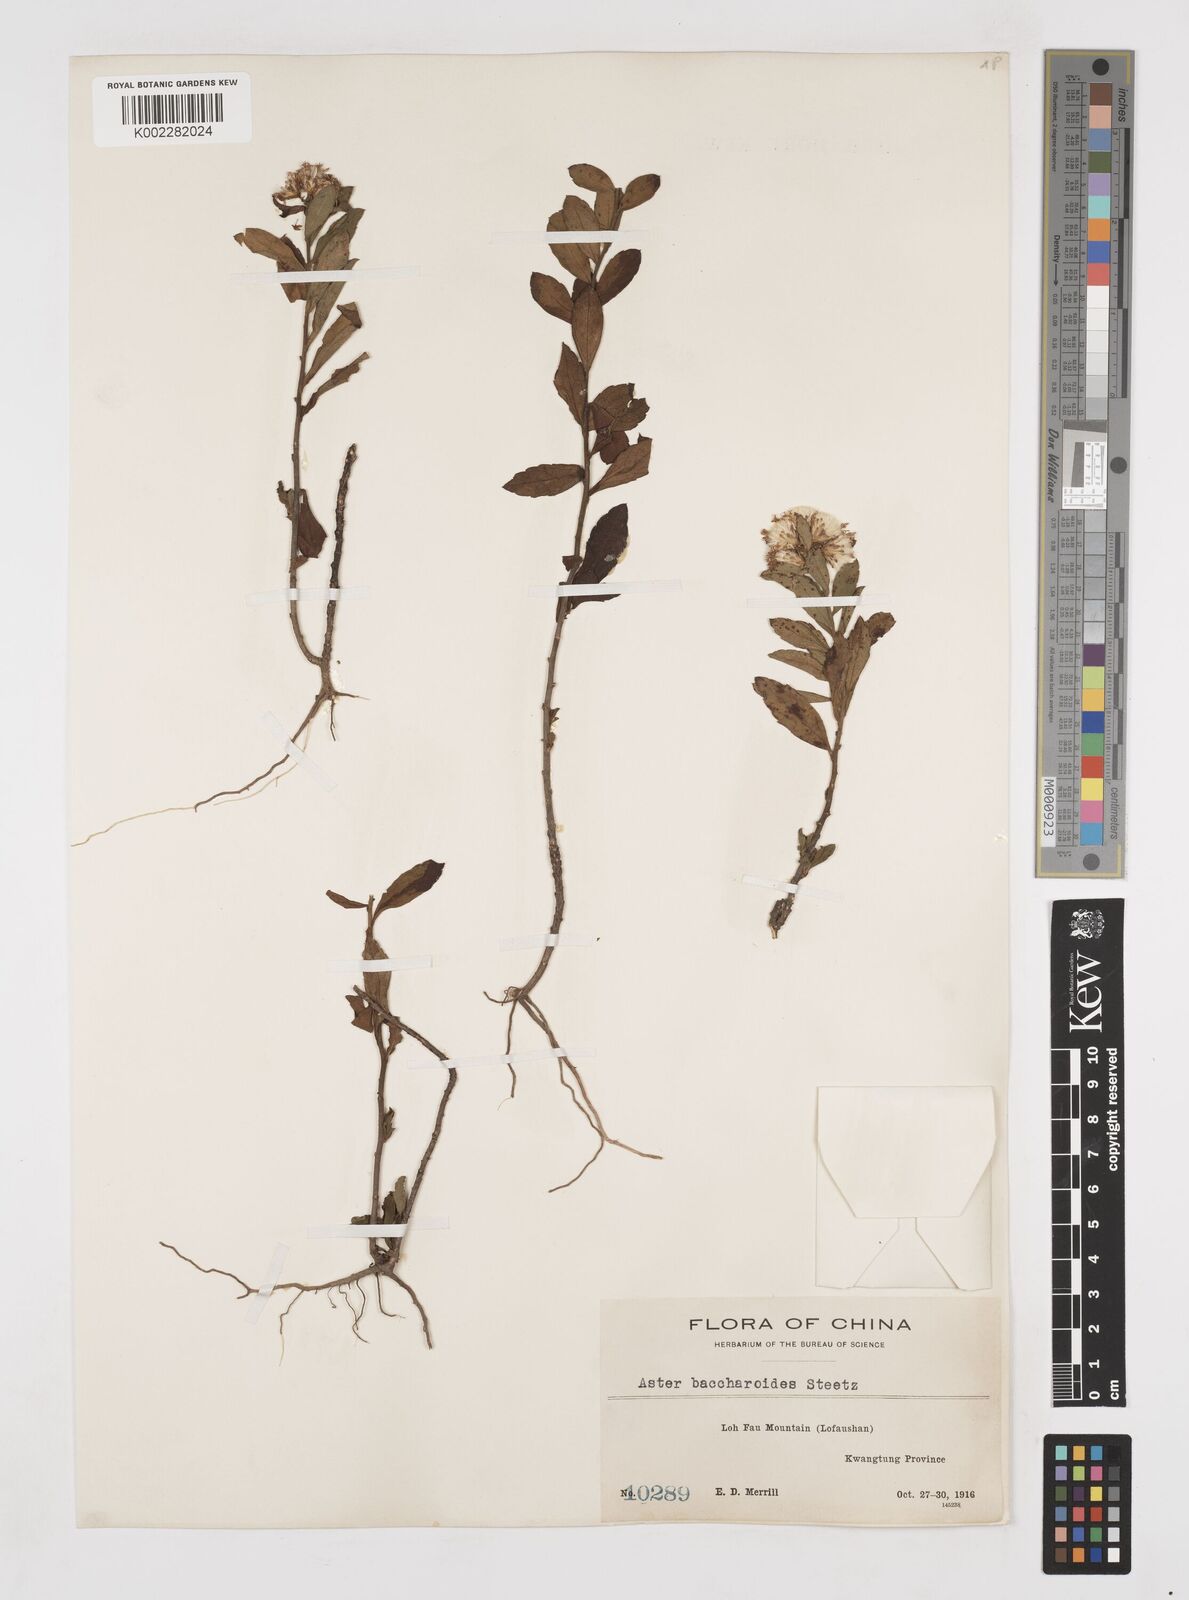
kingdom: Plantae
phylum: Tracheophyta
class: Magnoliopsida
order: Asterales
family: Asteraceae
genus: Aster
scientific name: Aster baccharoides
